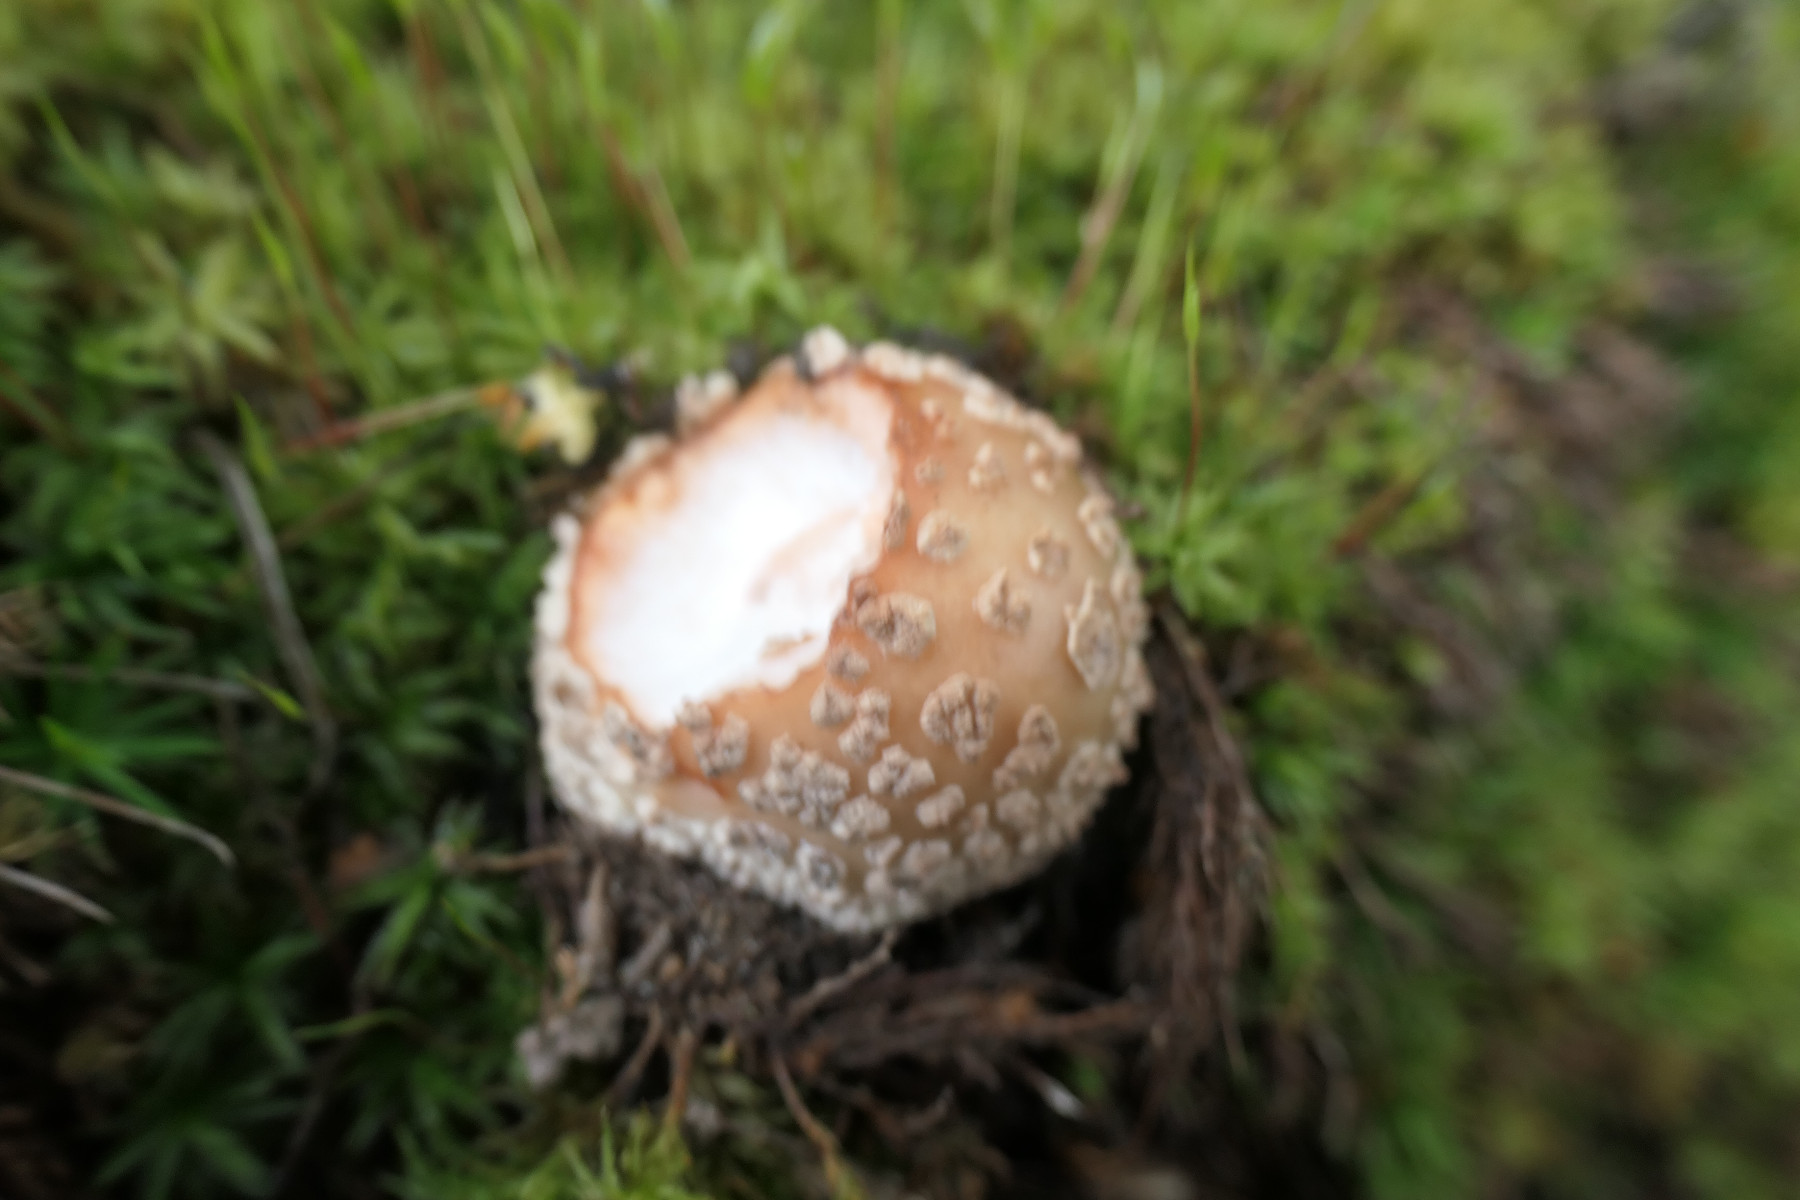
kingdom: Fungi
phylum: Basidiomycota
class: Agaricomycetes
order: Agaricales
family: Amanitaceae
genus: Amanita
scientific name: Amanita rubescens
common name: rødmende fluesvamp
